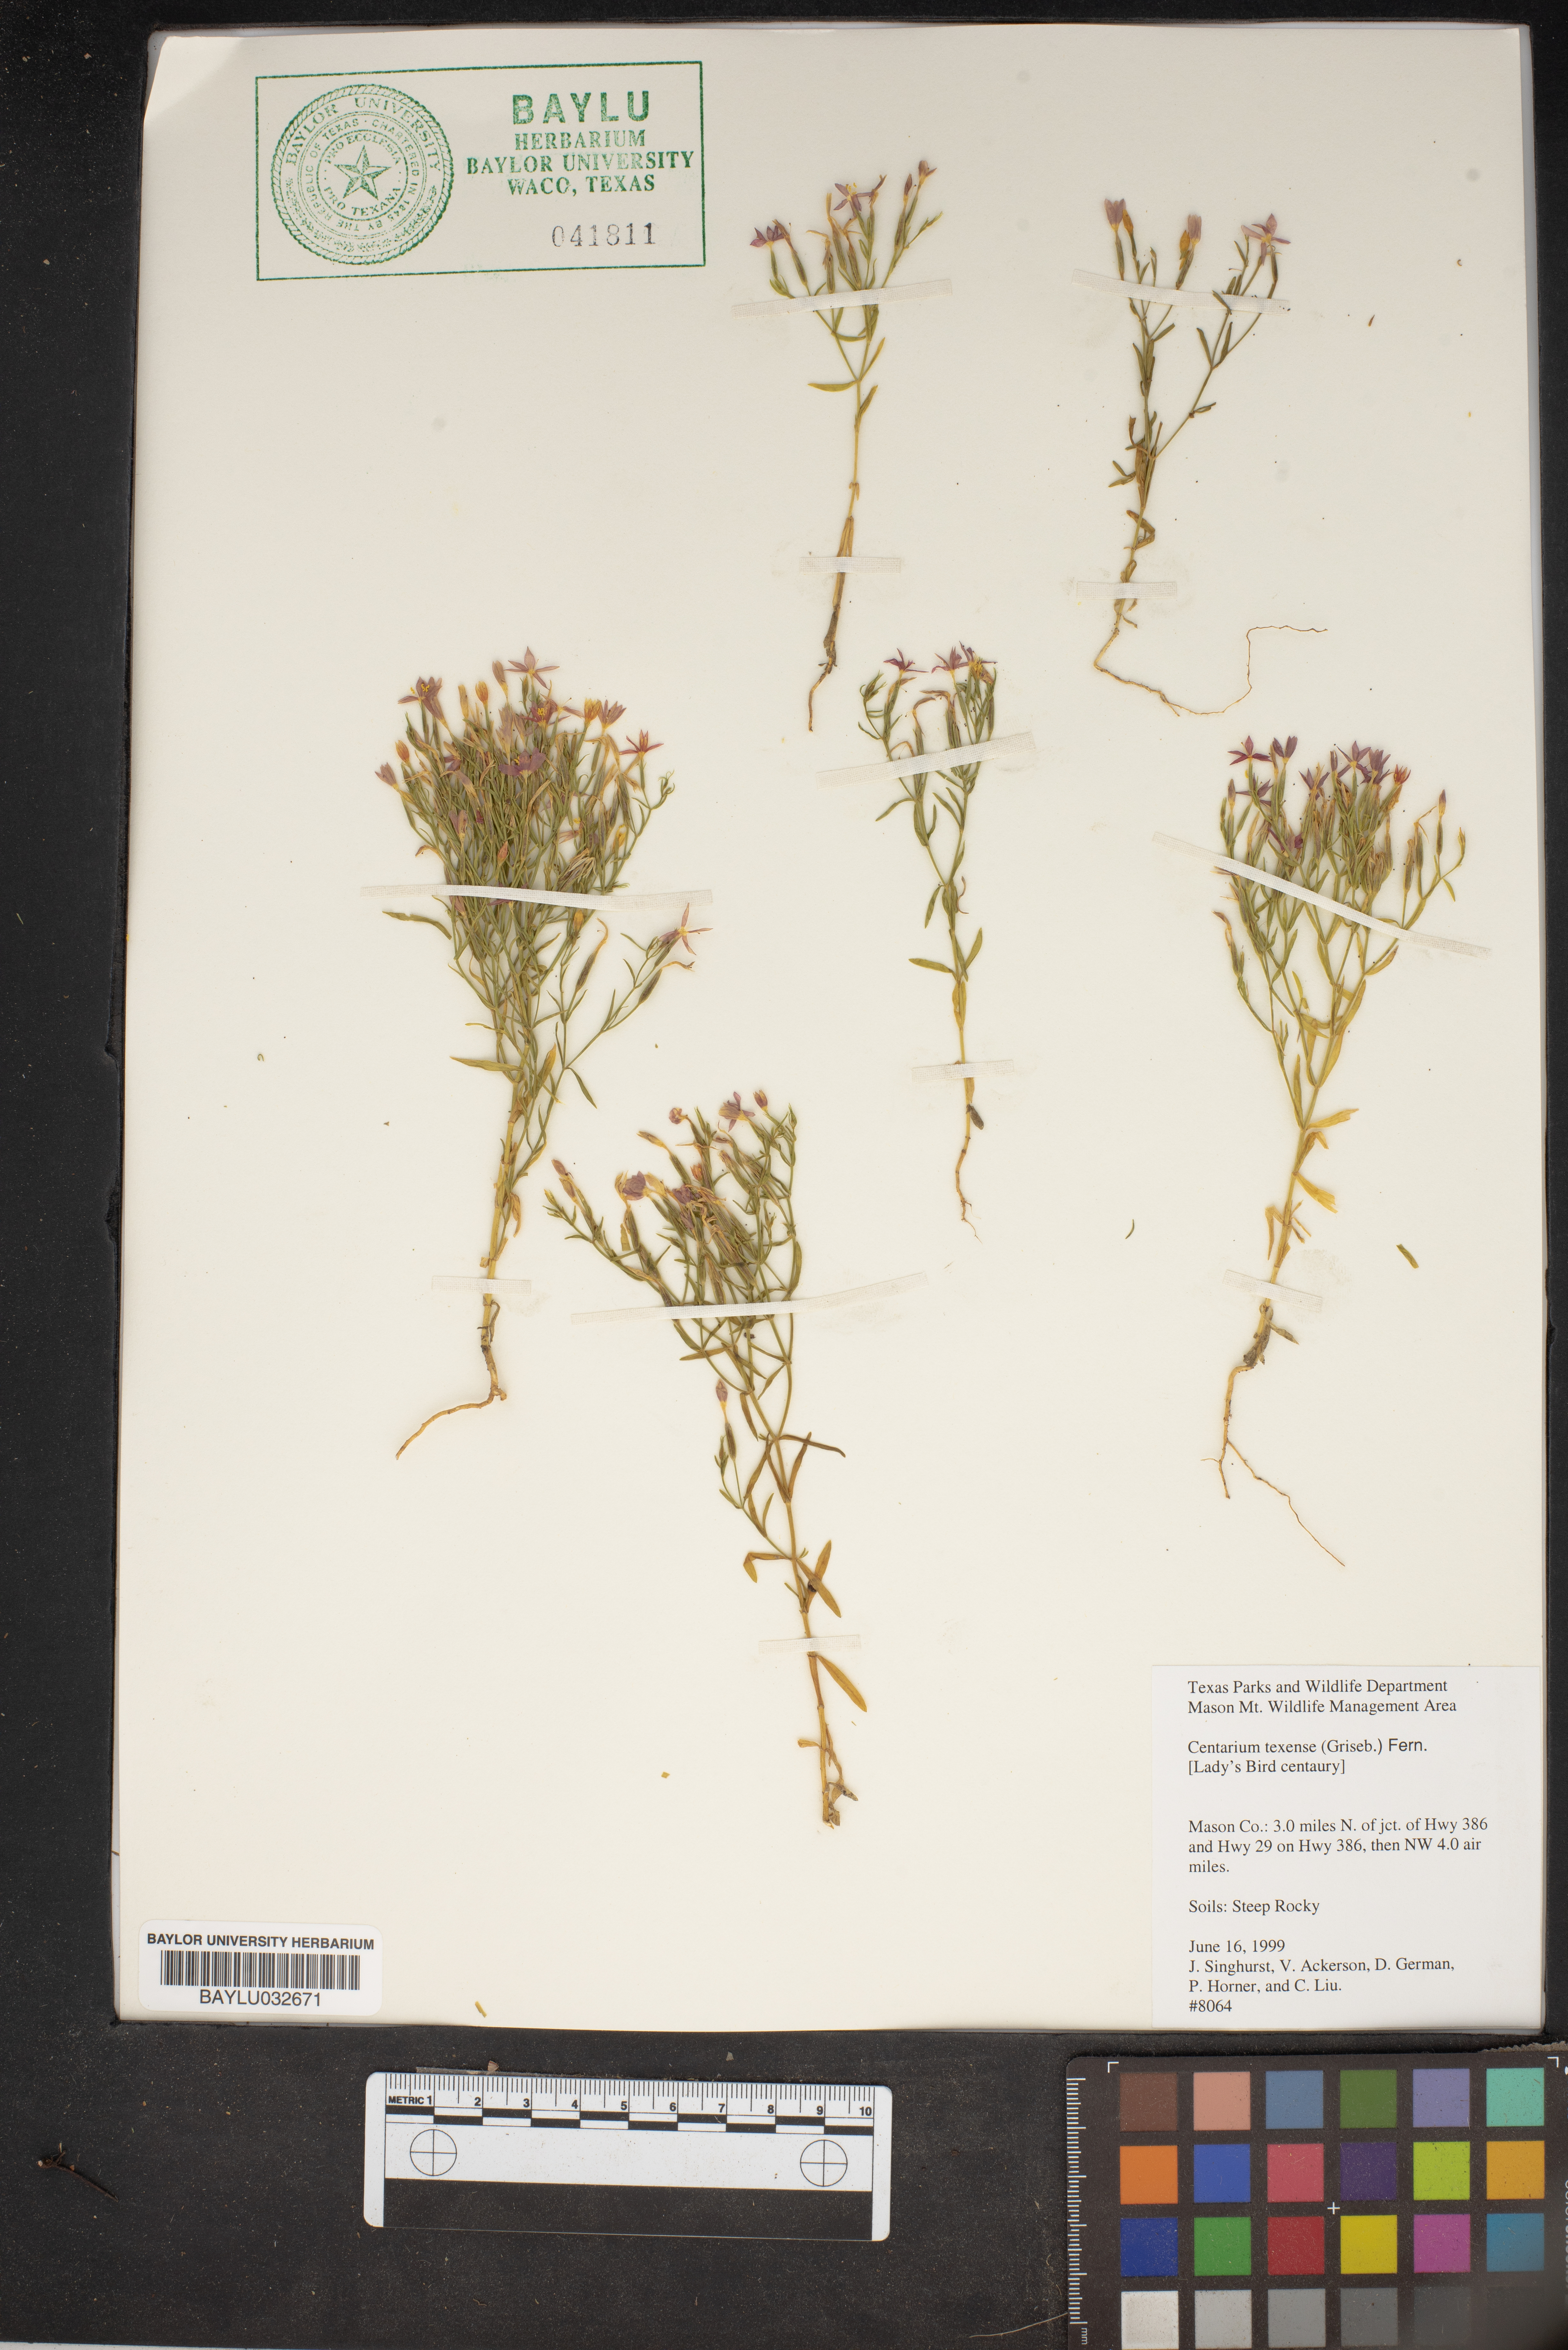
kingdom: Plantae
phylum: Tracheophyta
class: Magnoliopsida
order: Gentianales
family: Gentianaceae
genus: Zeltnera
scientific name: Zeltnera texensis
